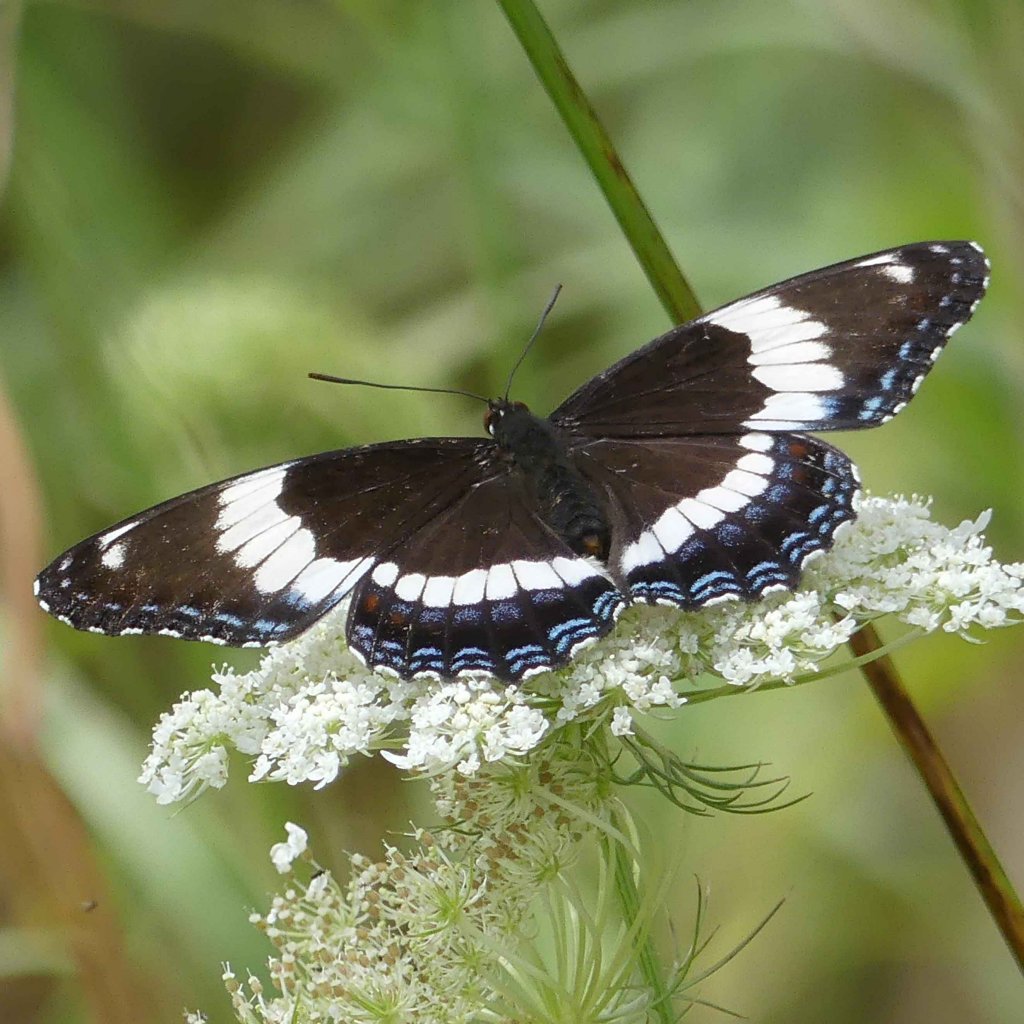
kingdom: Animalia
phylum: Arthropoda
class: Insecta
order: Lepidoptera
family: Nymphalidae
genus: Limenitis
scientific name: Limenitis arthemis
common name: Red-spotted Admiral
